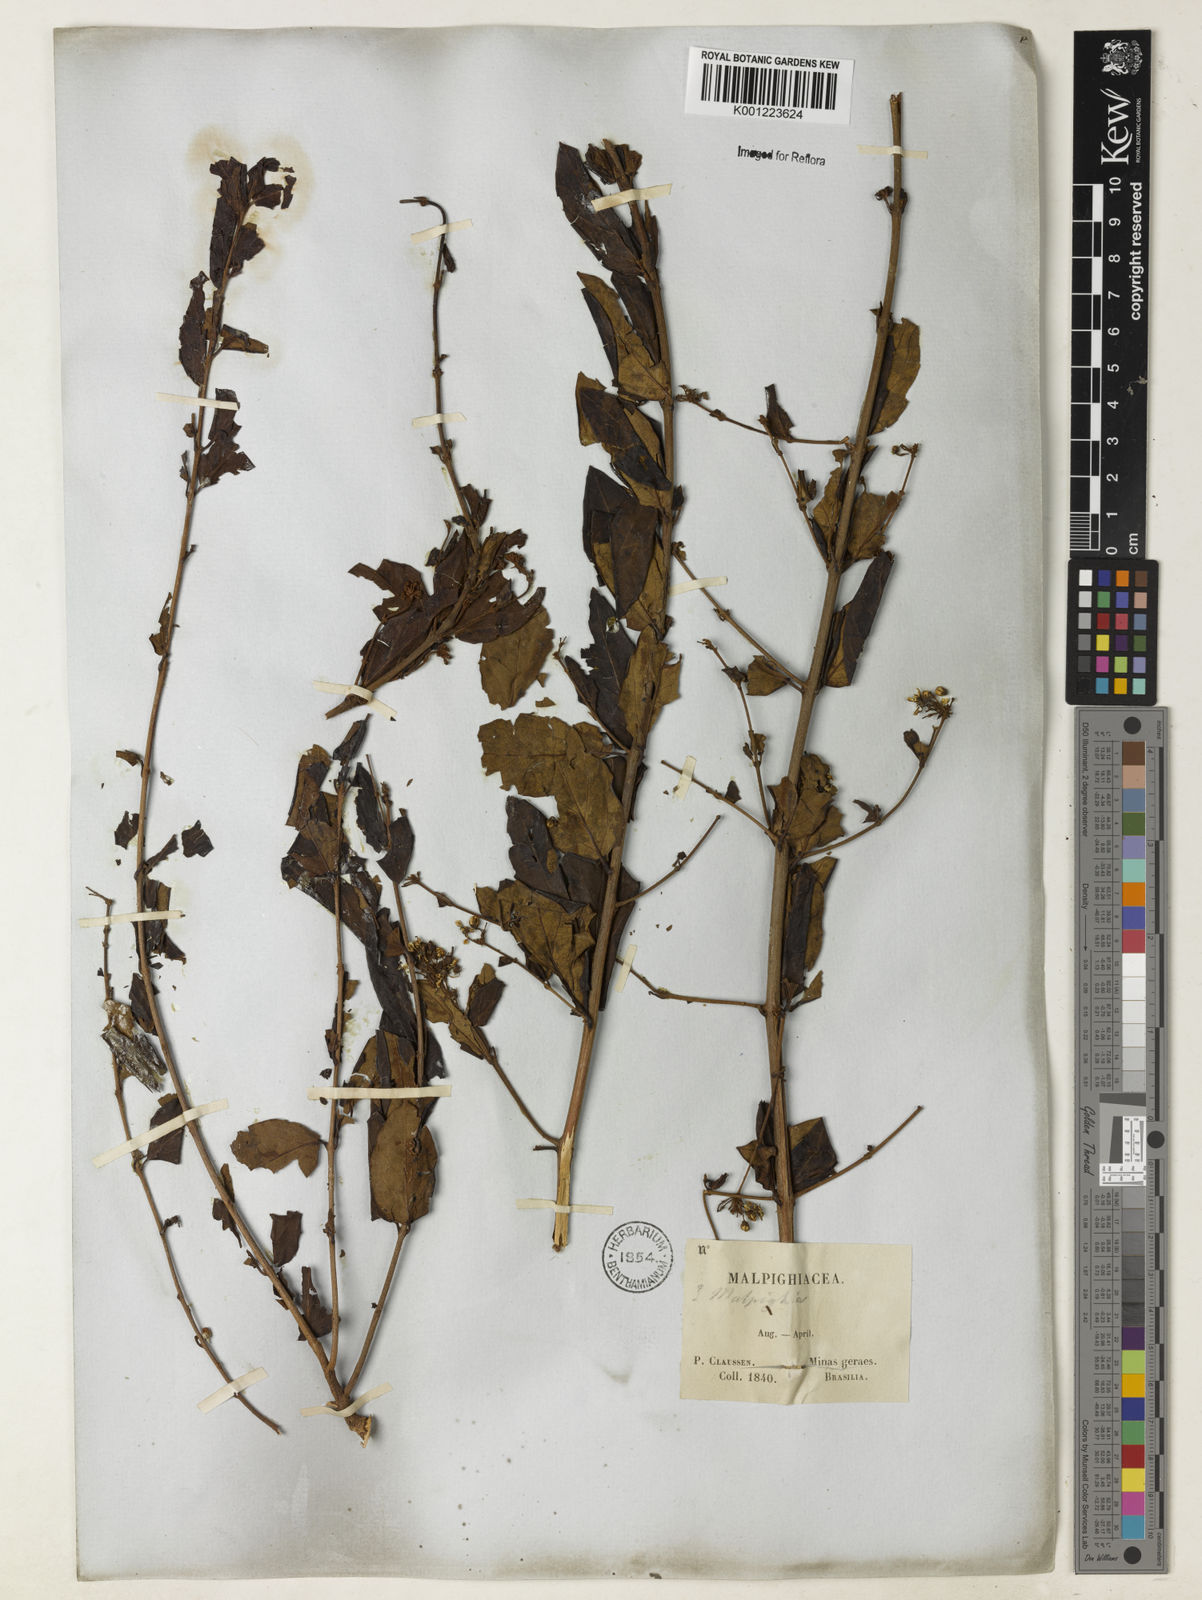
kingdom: Plantae
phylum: Tracheophyta
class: Magnoliopsida
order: Malpighiales
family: Malpighiaceae
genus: Heteropterys
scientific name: Heteropterys umbellata
